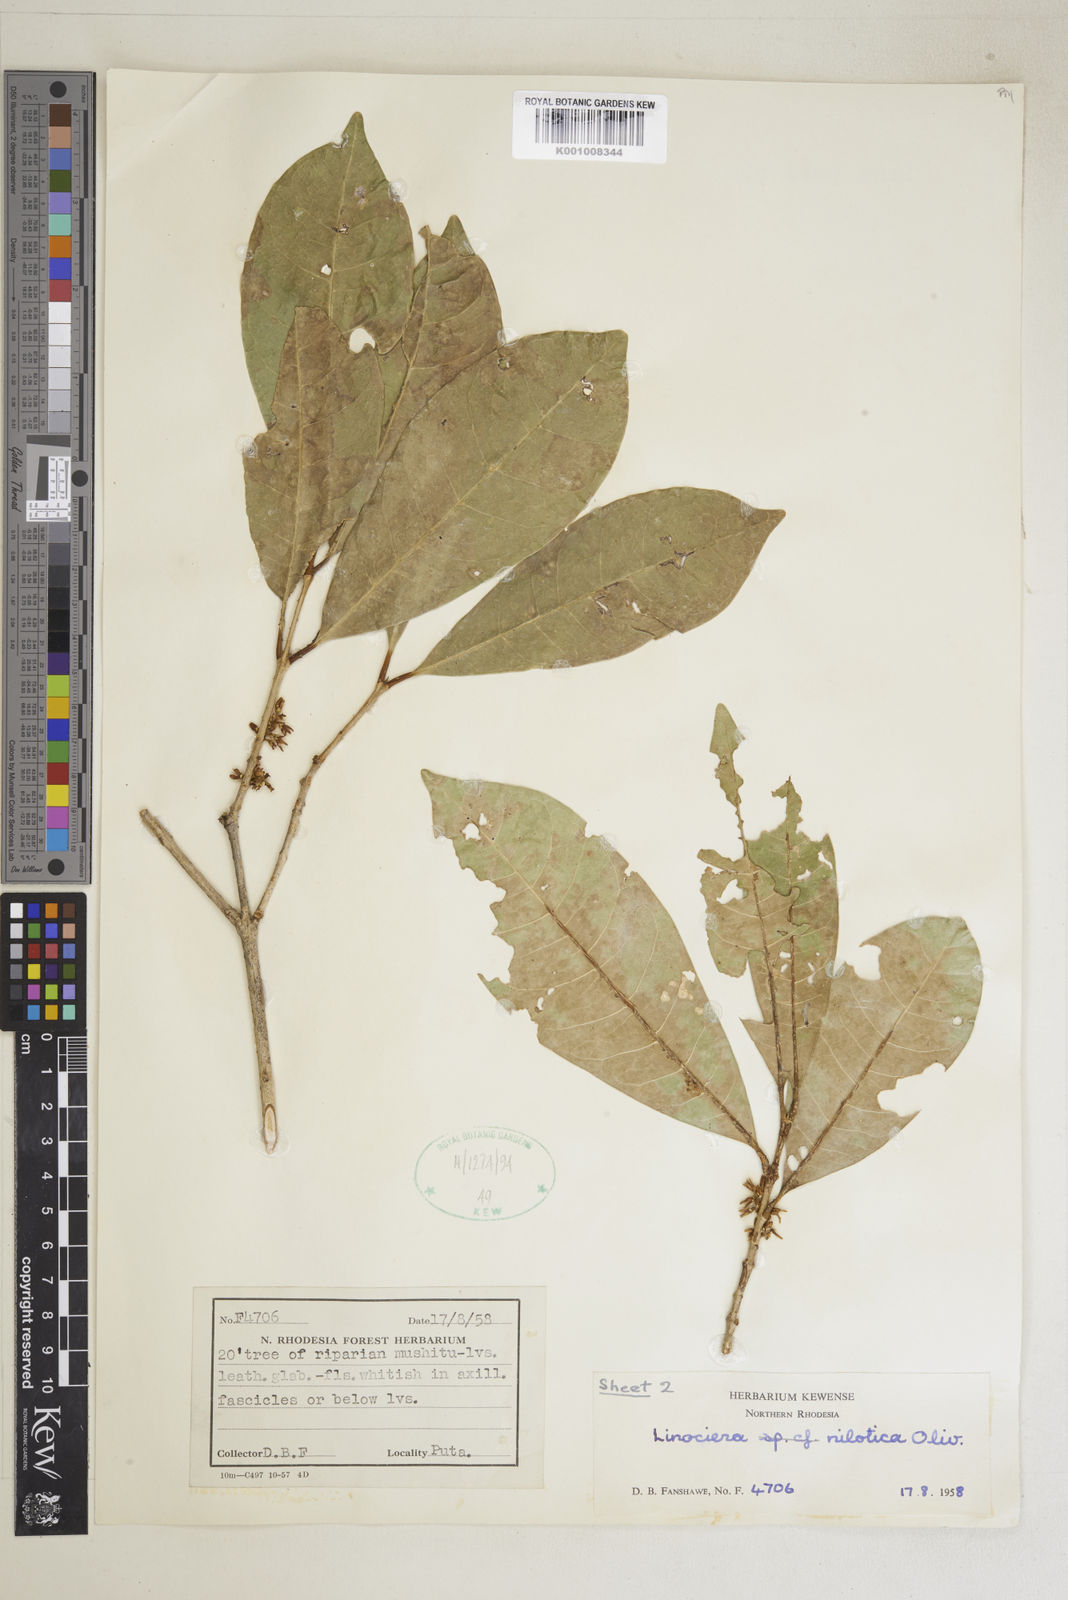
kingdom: Plantae
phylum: Tracheophyta
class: Magnoliopsida
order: Lamiales
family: Oleaceae
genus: Noronhia
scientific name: Noronhia nilotica
